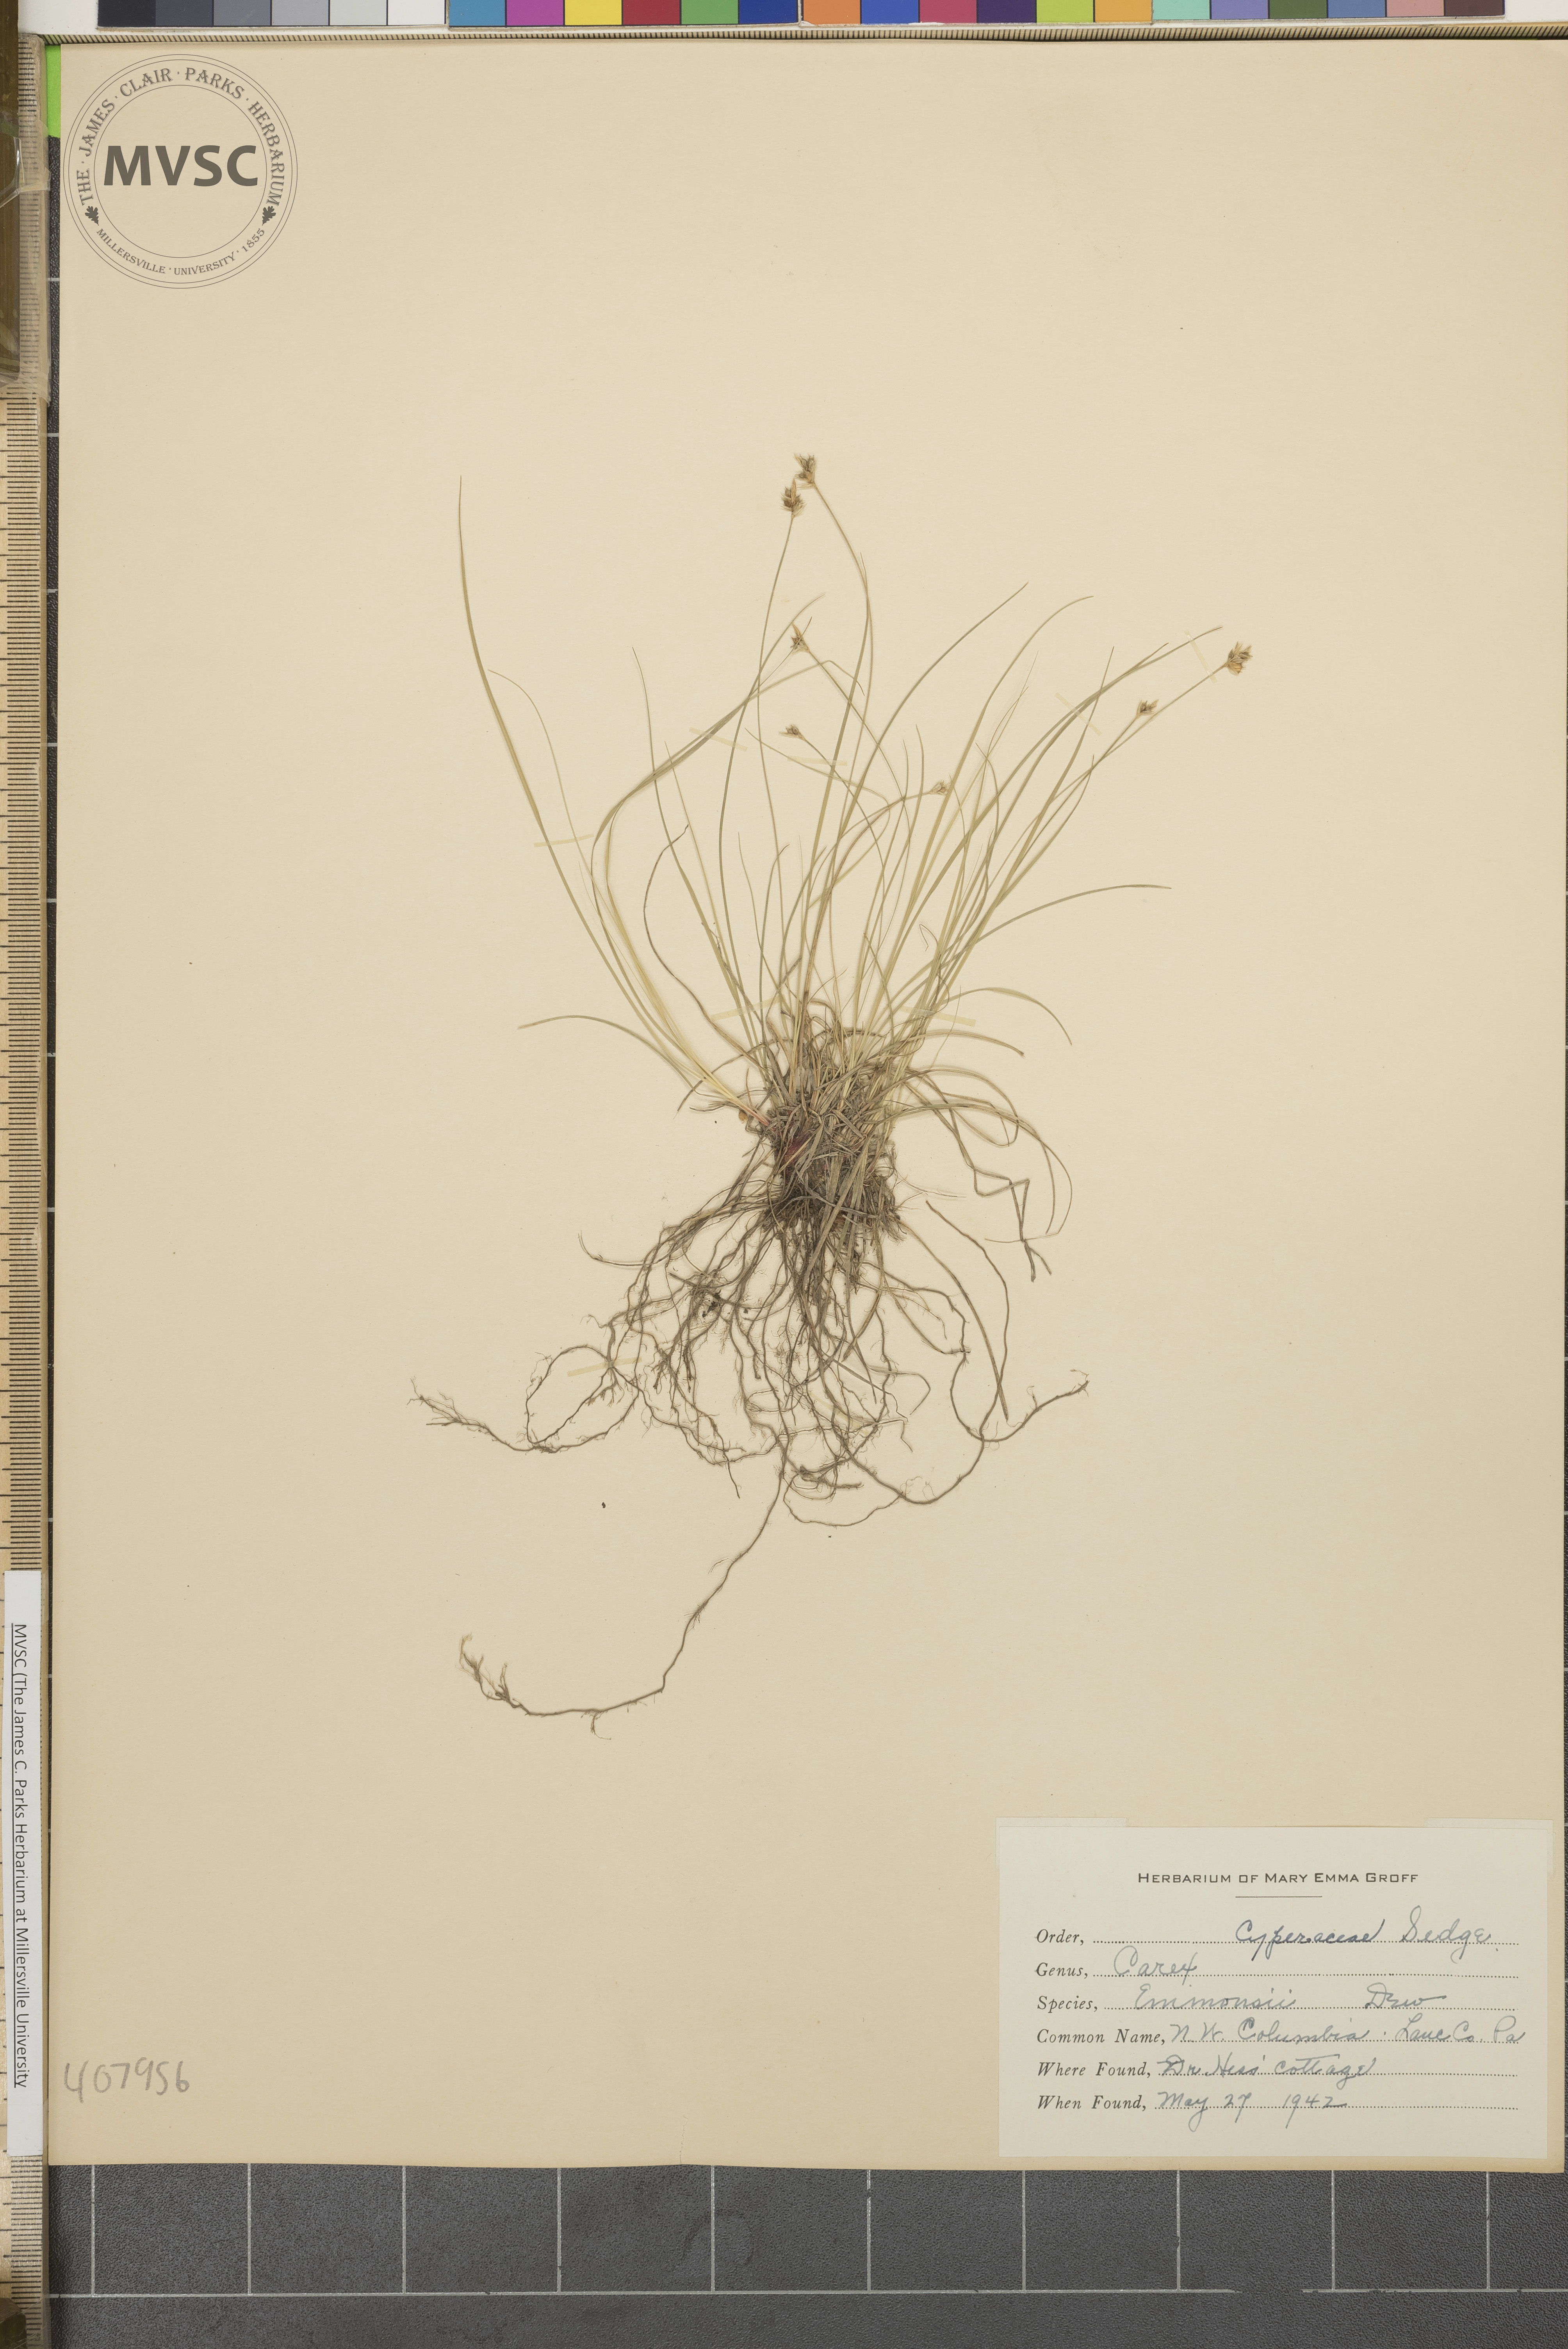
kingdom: Plantae
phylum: Tracheophyta
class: Liliopsida
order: Poales
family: Cyperaceae
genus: Carex
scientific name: Carex albicans
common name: Bellow-beaked sedge
